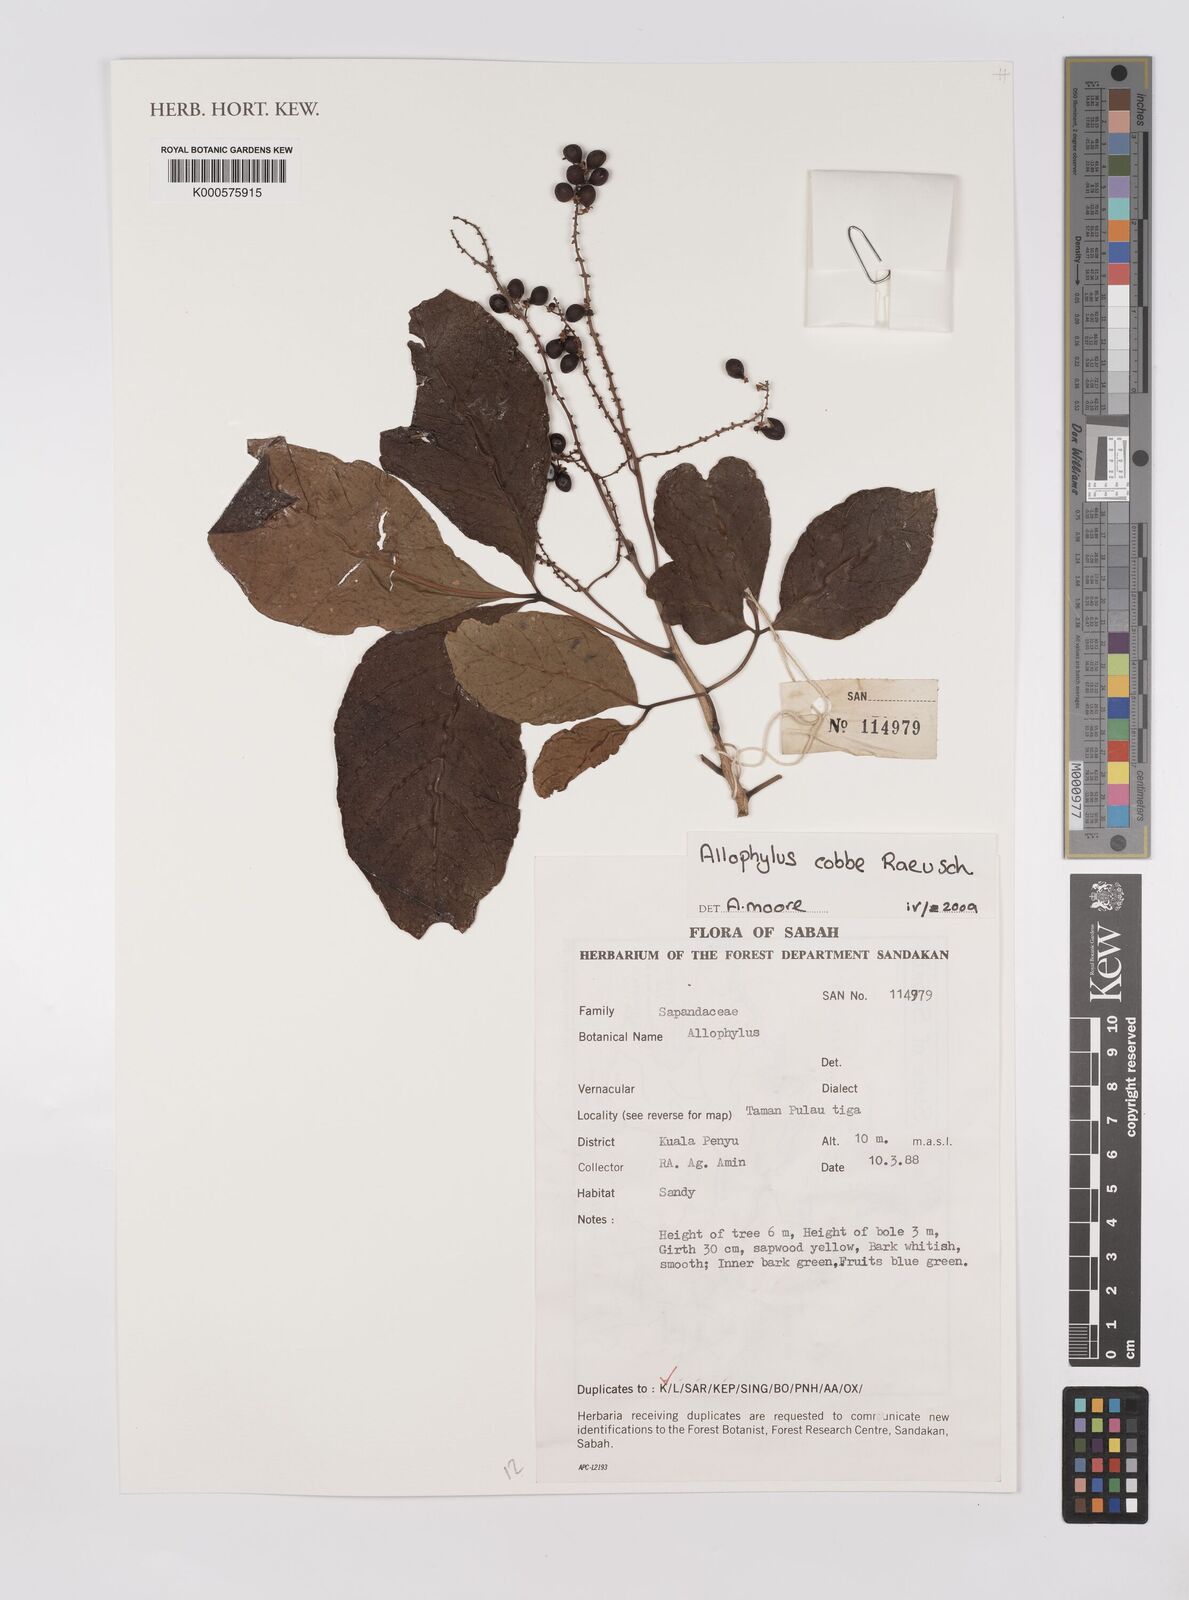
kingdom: Plantae
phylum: Tracheophyta
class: Magnoliopsida
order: Sapindales
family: Sapindaceae
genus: Allophylus
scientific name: Allophylus
